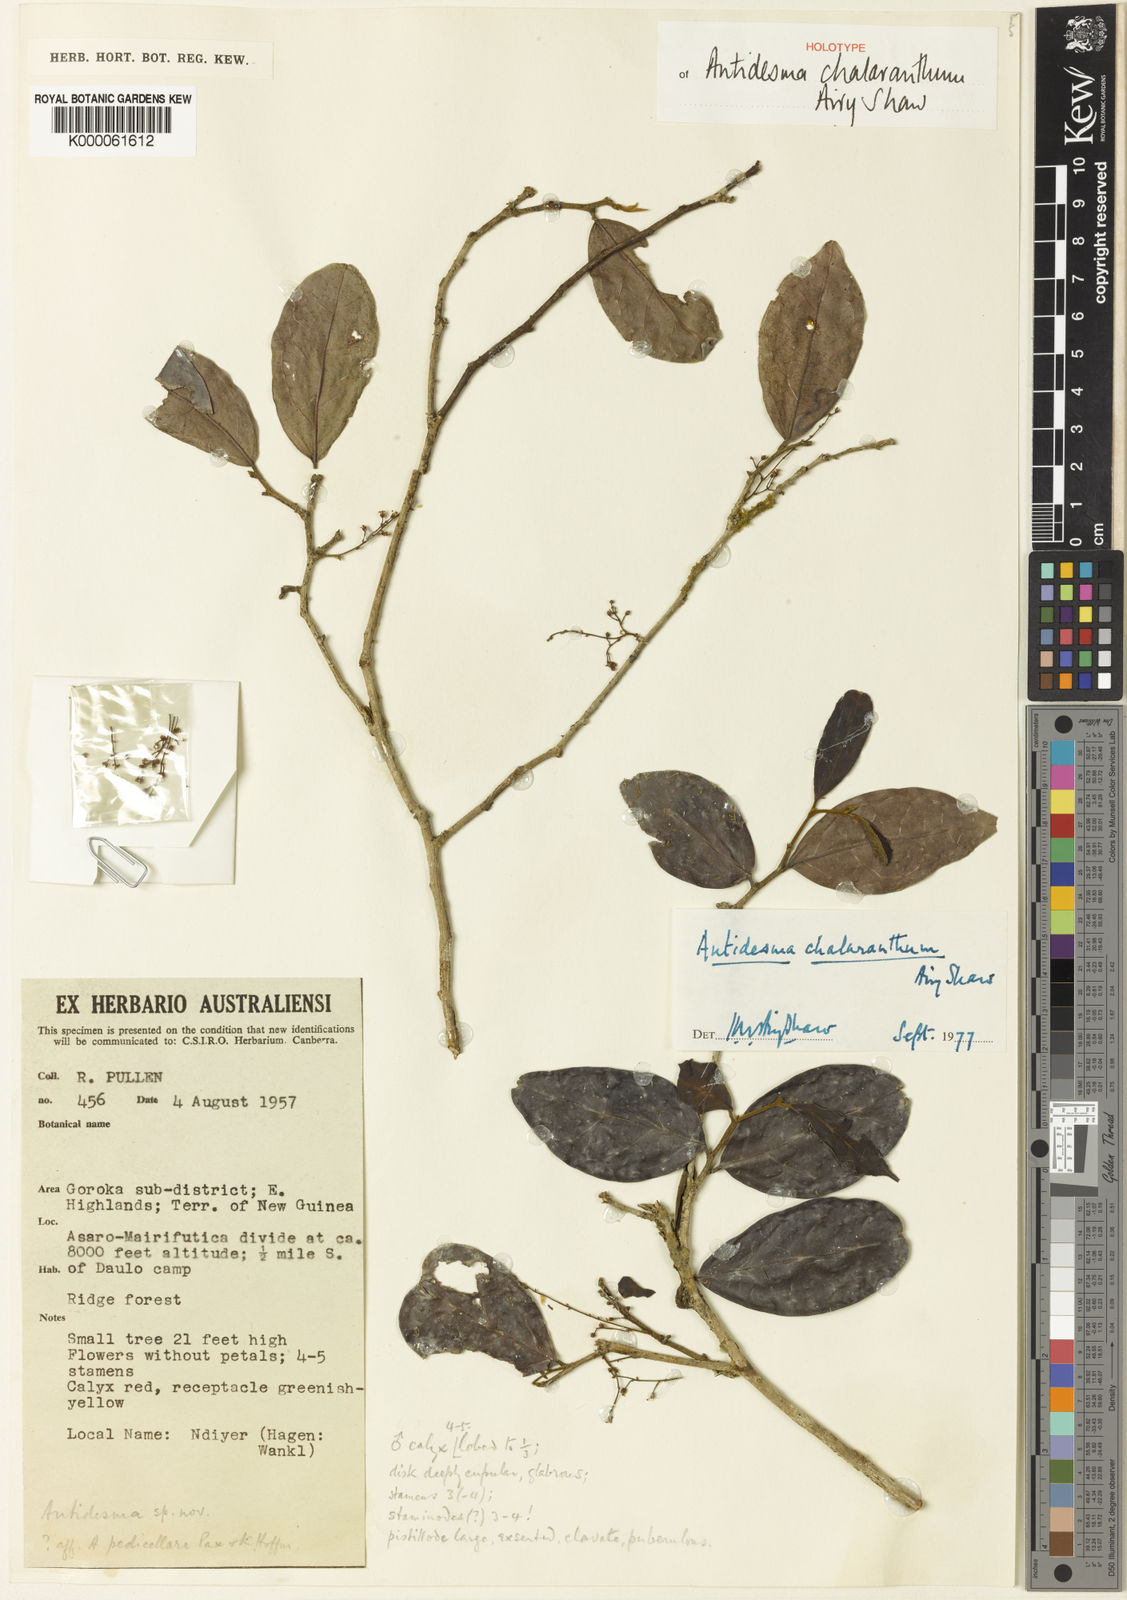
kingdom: Plantae
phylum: Tracheophyta
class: Magnoliopsida
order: Malpighiales
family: Phyllanthaceae
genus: Antidesma
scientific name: Antidesma chalaranthum
